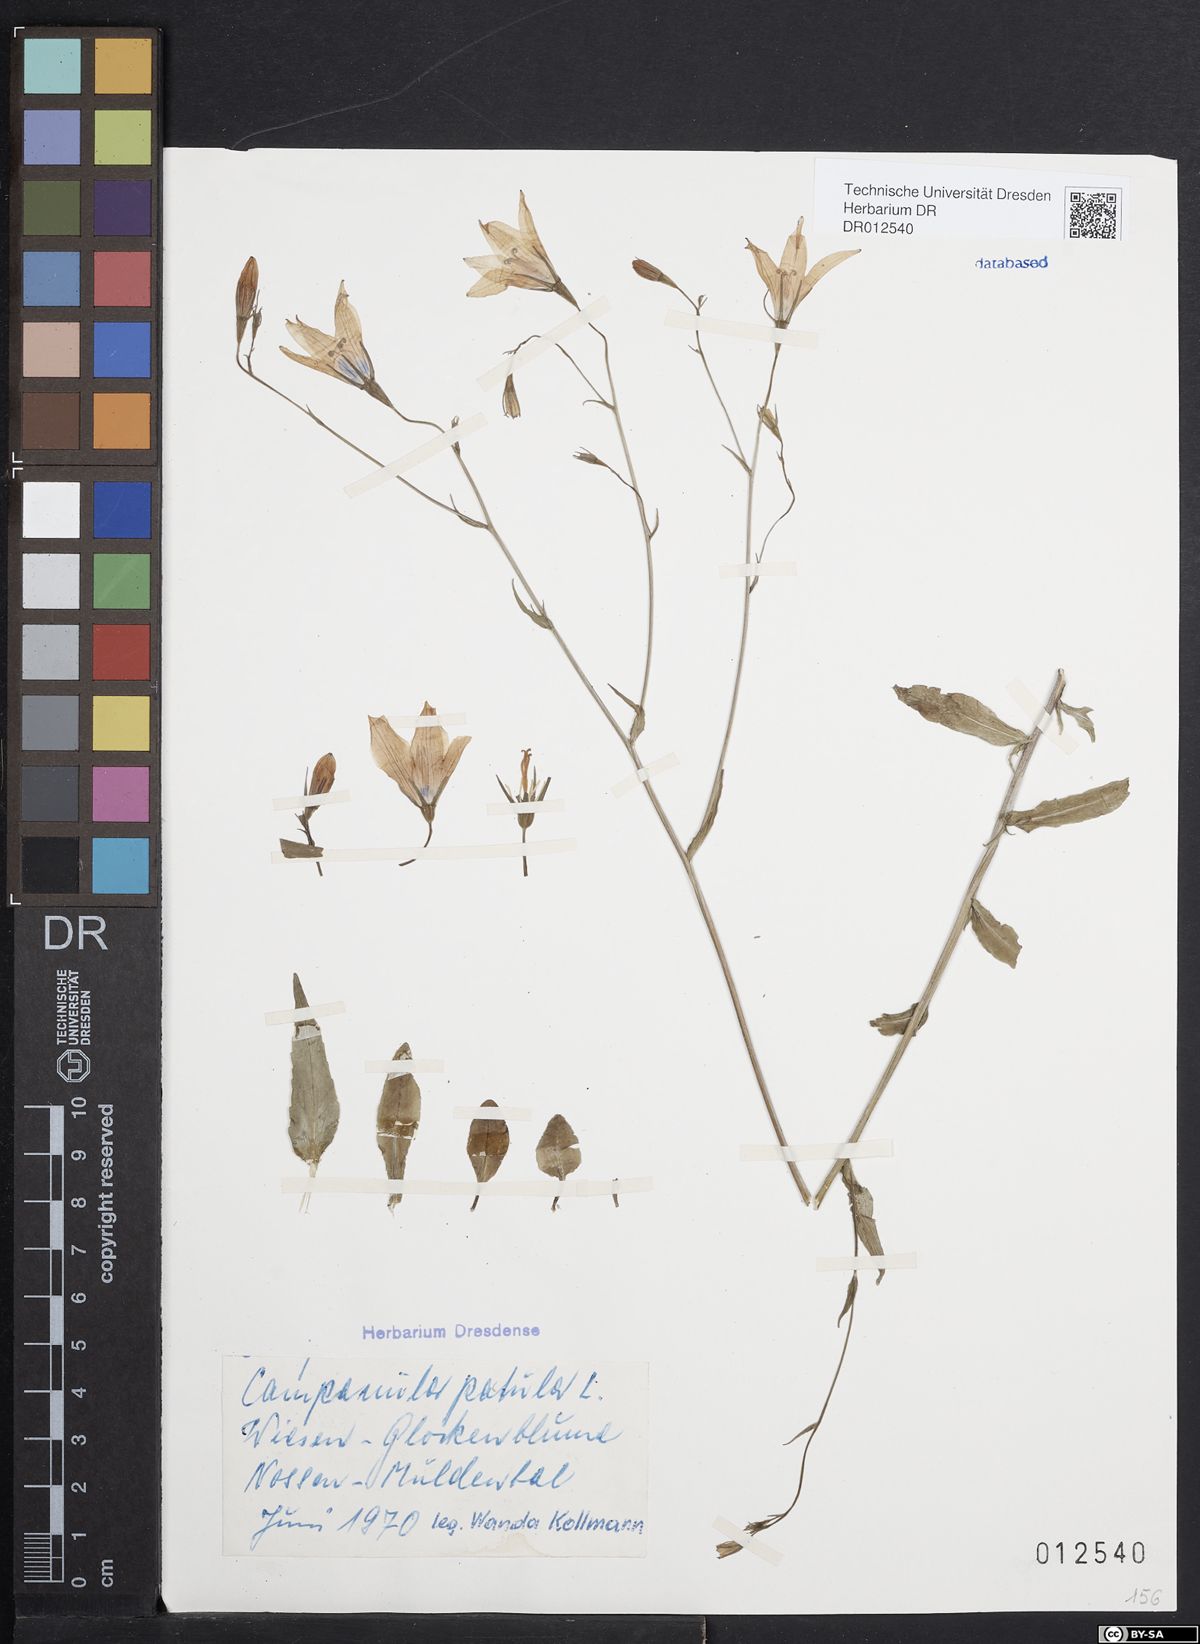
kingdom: Plantae
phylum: Tracheophyta
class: Magnoliopsida
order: Asterales
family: Campanulaceae
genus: Campanula
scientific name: Campanula patula
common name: Spreading bellflower
